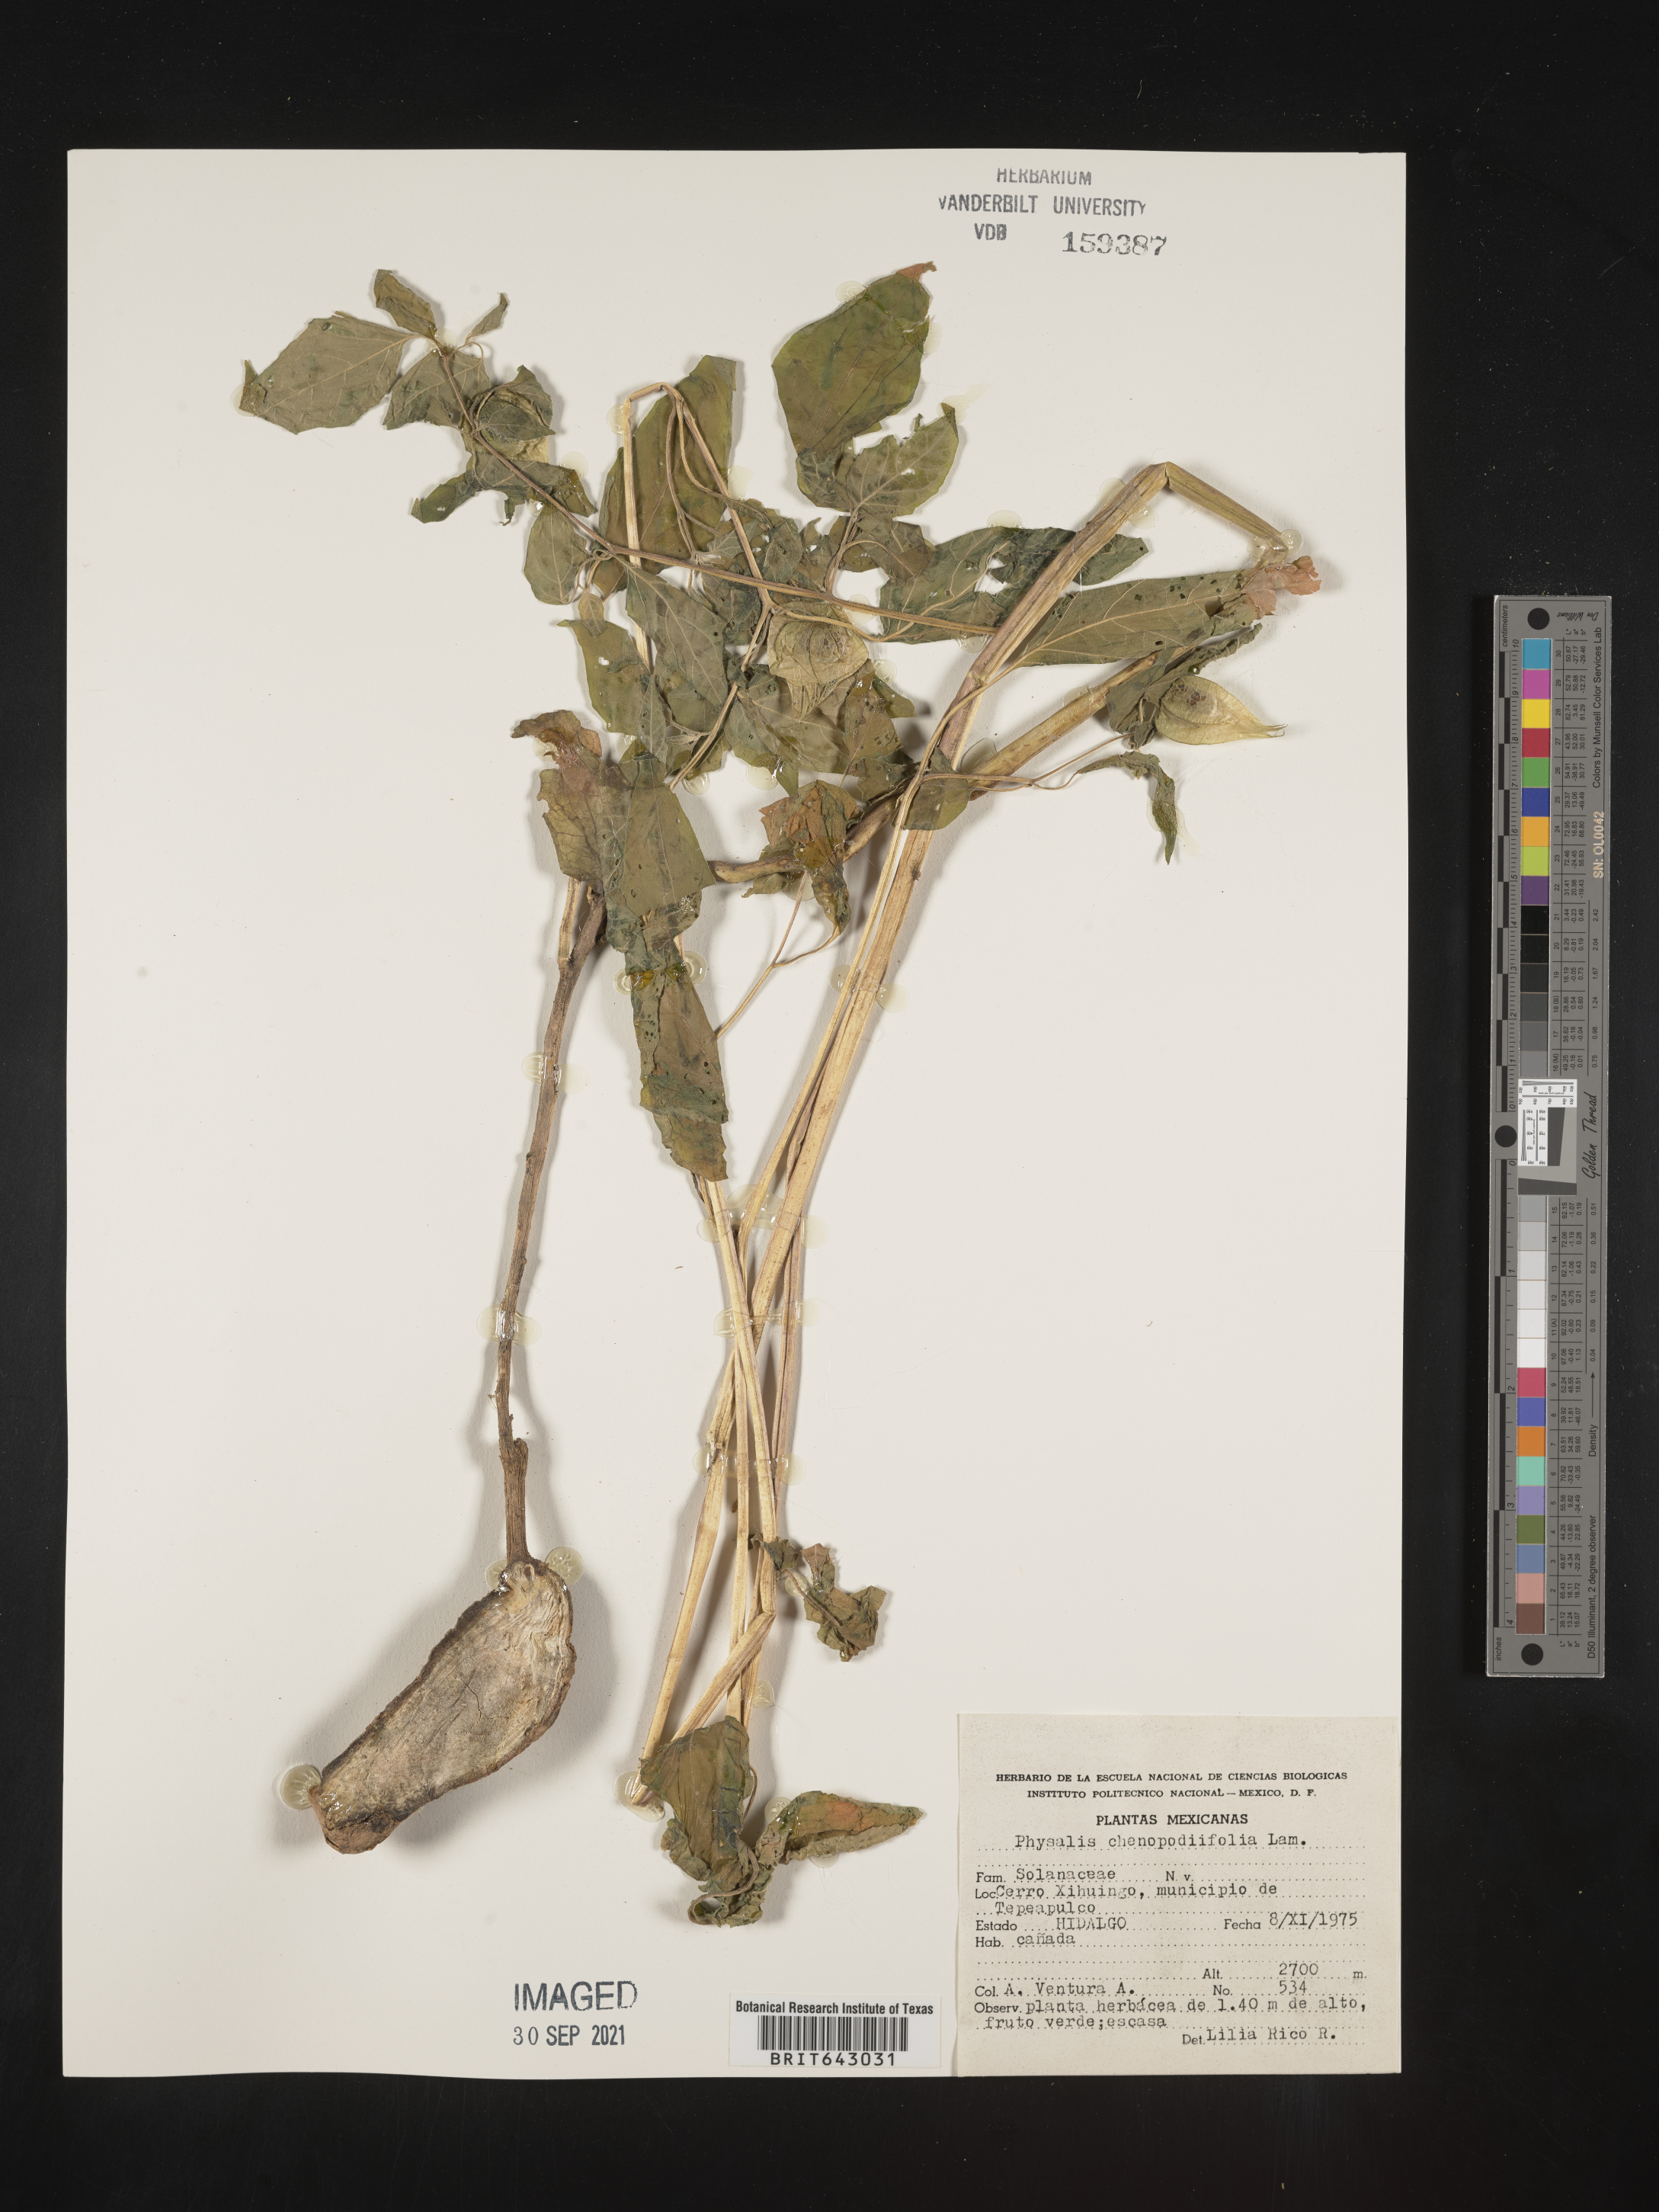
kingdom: Plantae
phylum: Tracheophyta
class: Magnoliopsida
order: Solanales
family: Solanaceae
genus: Physalis
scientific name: Physalis
